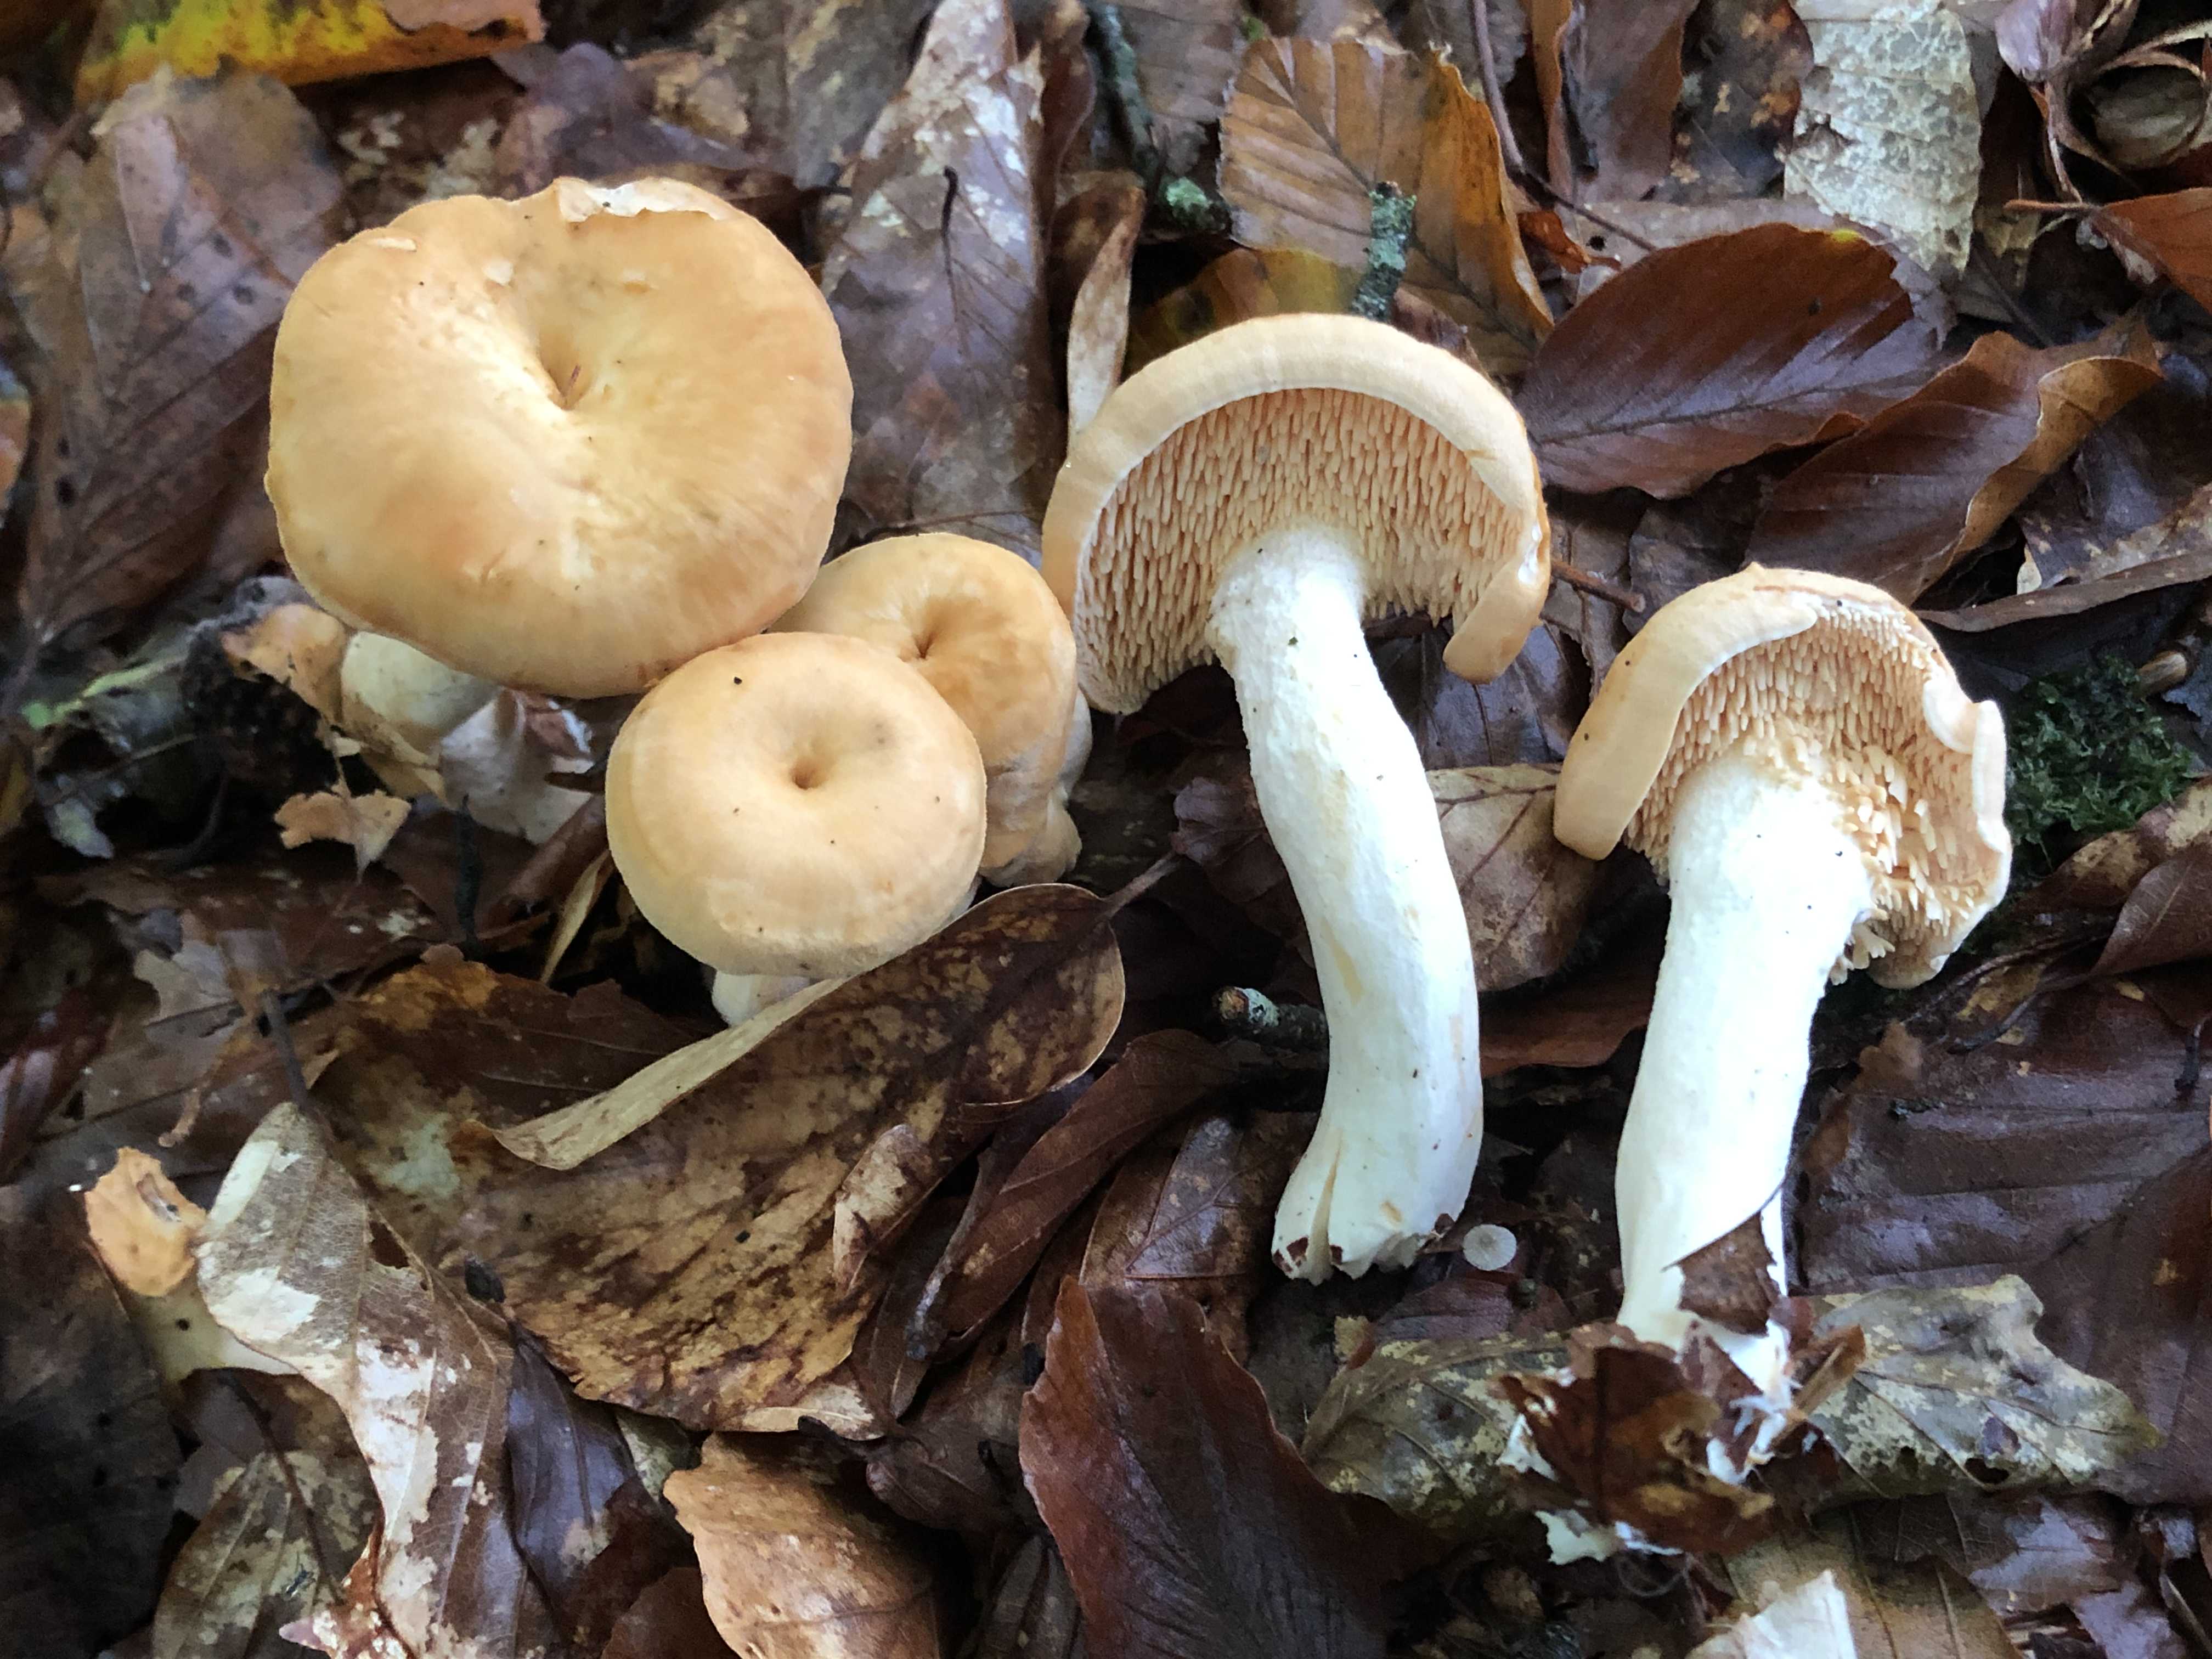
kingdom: Fungi
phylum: Basidiomycota
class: Agaricomycetes
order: Cantharellales
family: Hydnaceae
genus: Hydnum
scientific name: Hydnum umbilicatum
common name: navle-pigsvamp
